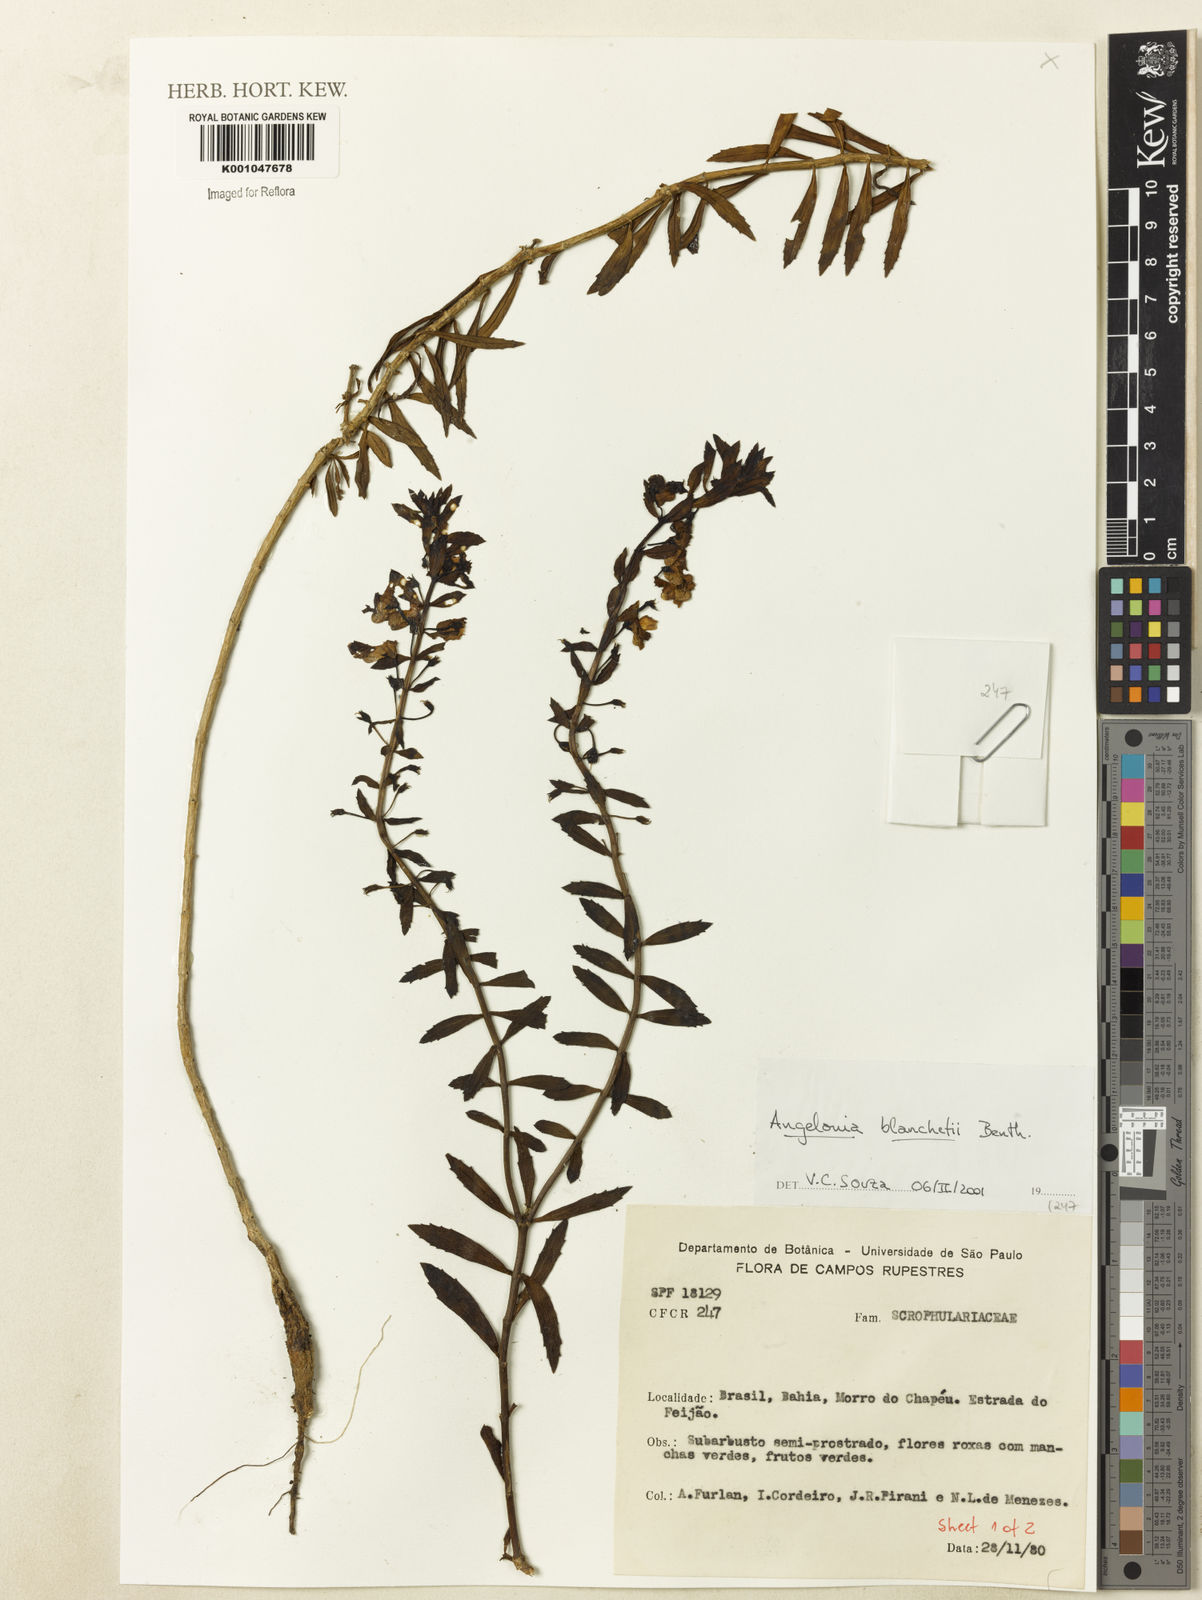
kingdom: Plantae
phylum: Tracheophyta
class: Magnoliopsida
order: Lamiales
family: Plantaginaceae
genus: Angelonia
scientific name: Angelonia blanchetii
